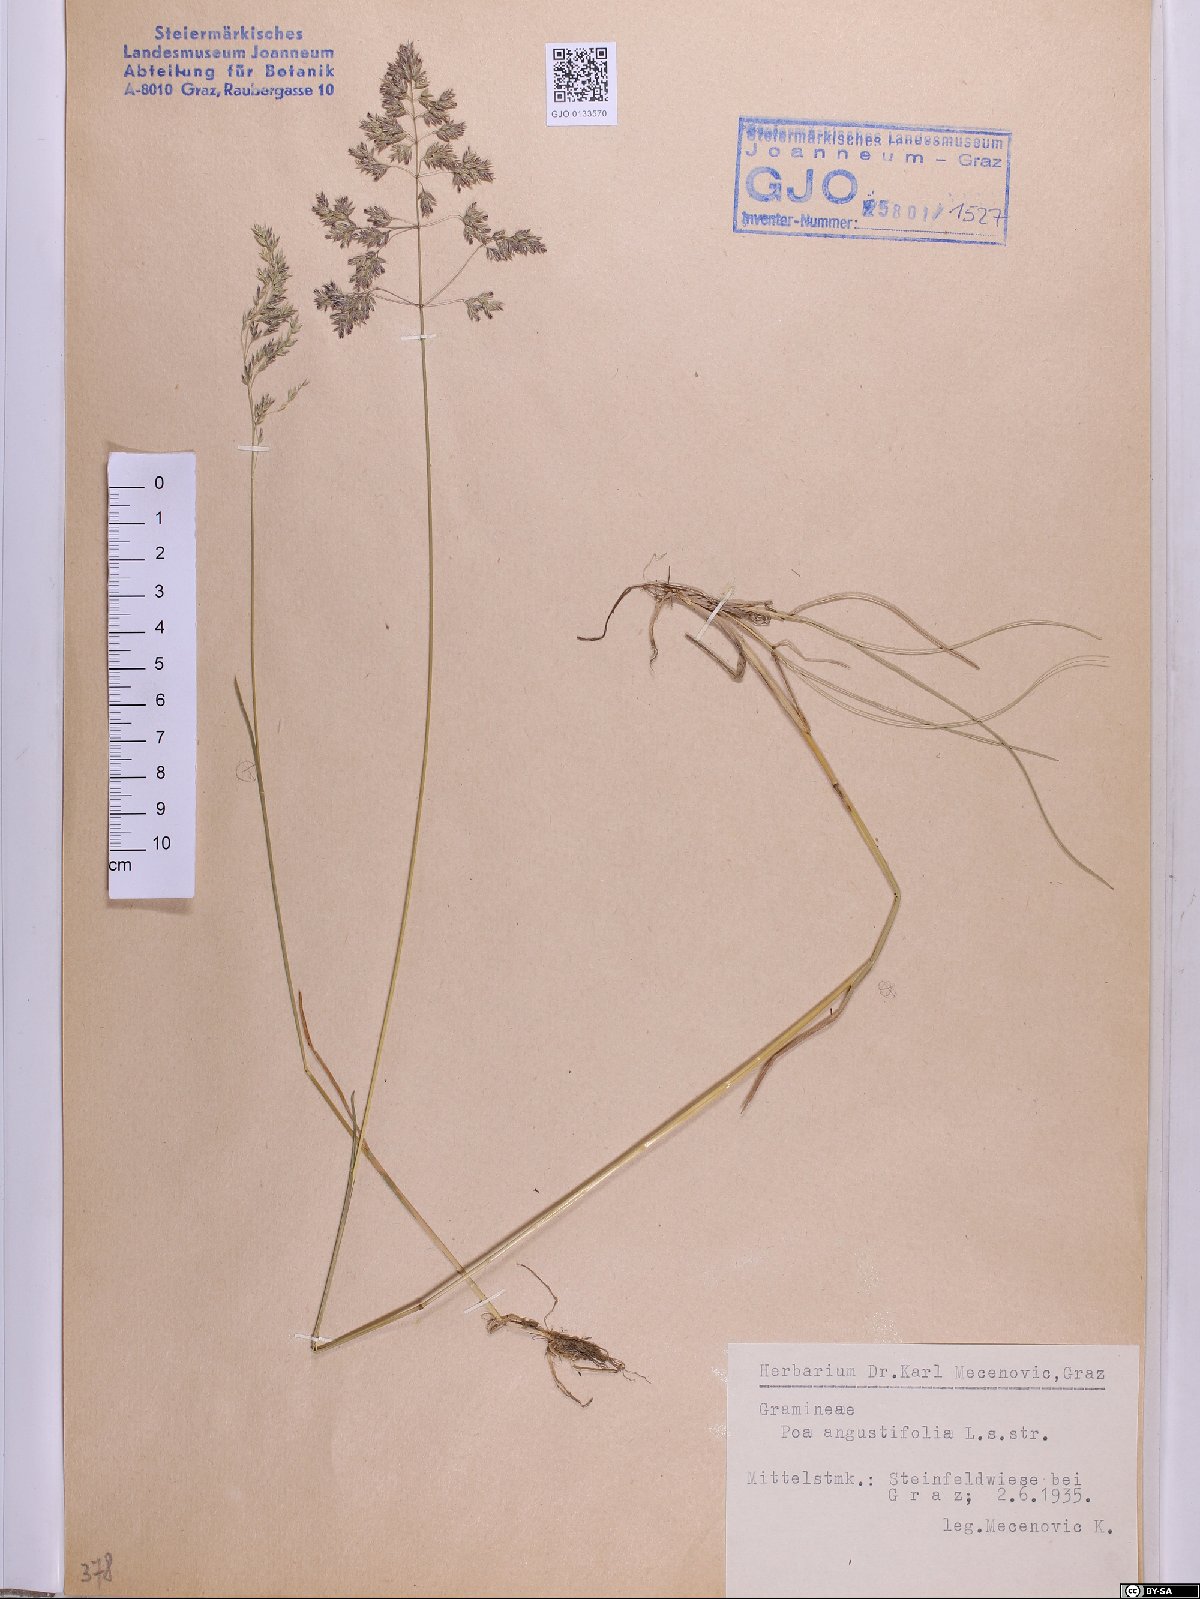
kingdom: Plantae
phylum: Tracheophyta
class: Liliopsida
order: Poales
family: Poaceae
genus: Poa
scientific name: Poa angustifolia
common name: Narrow-leaved meadow-grass
